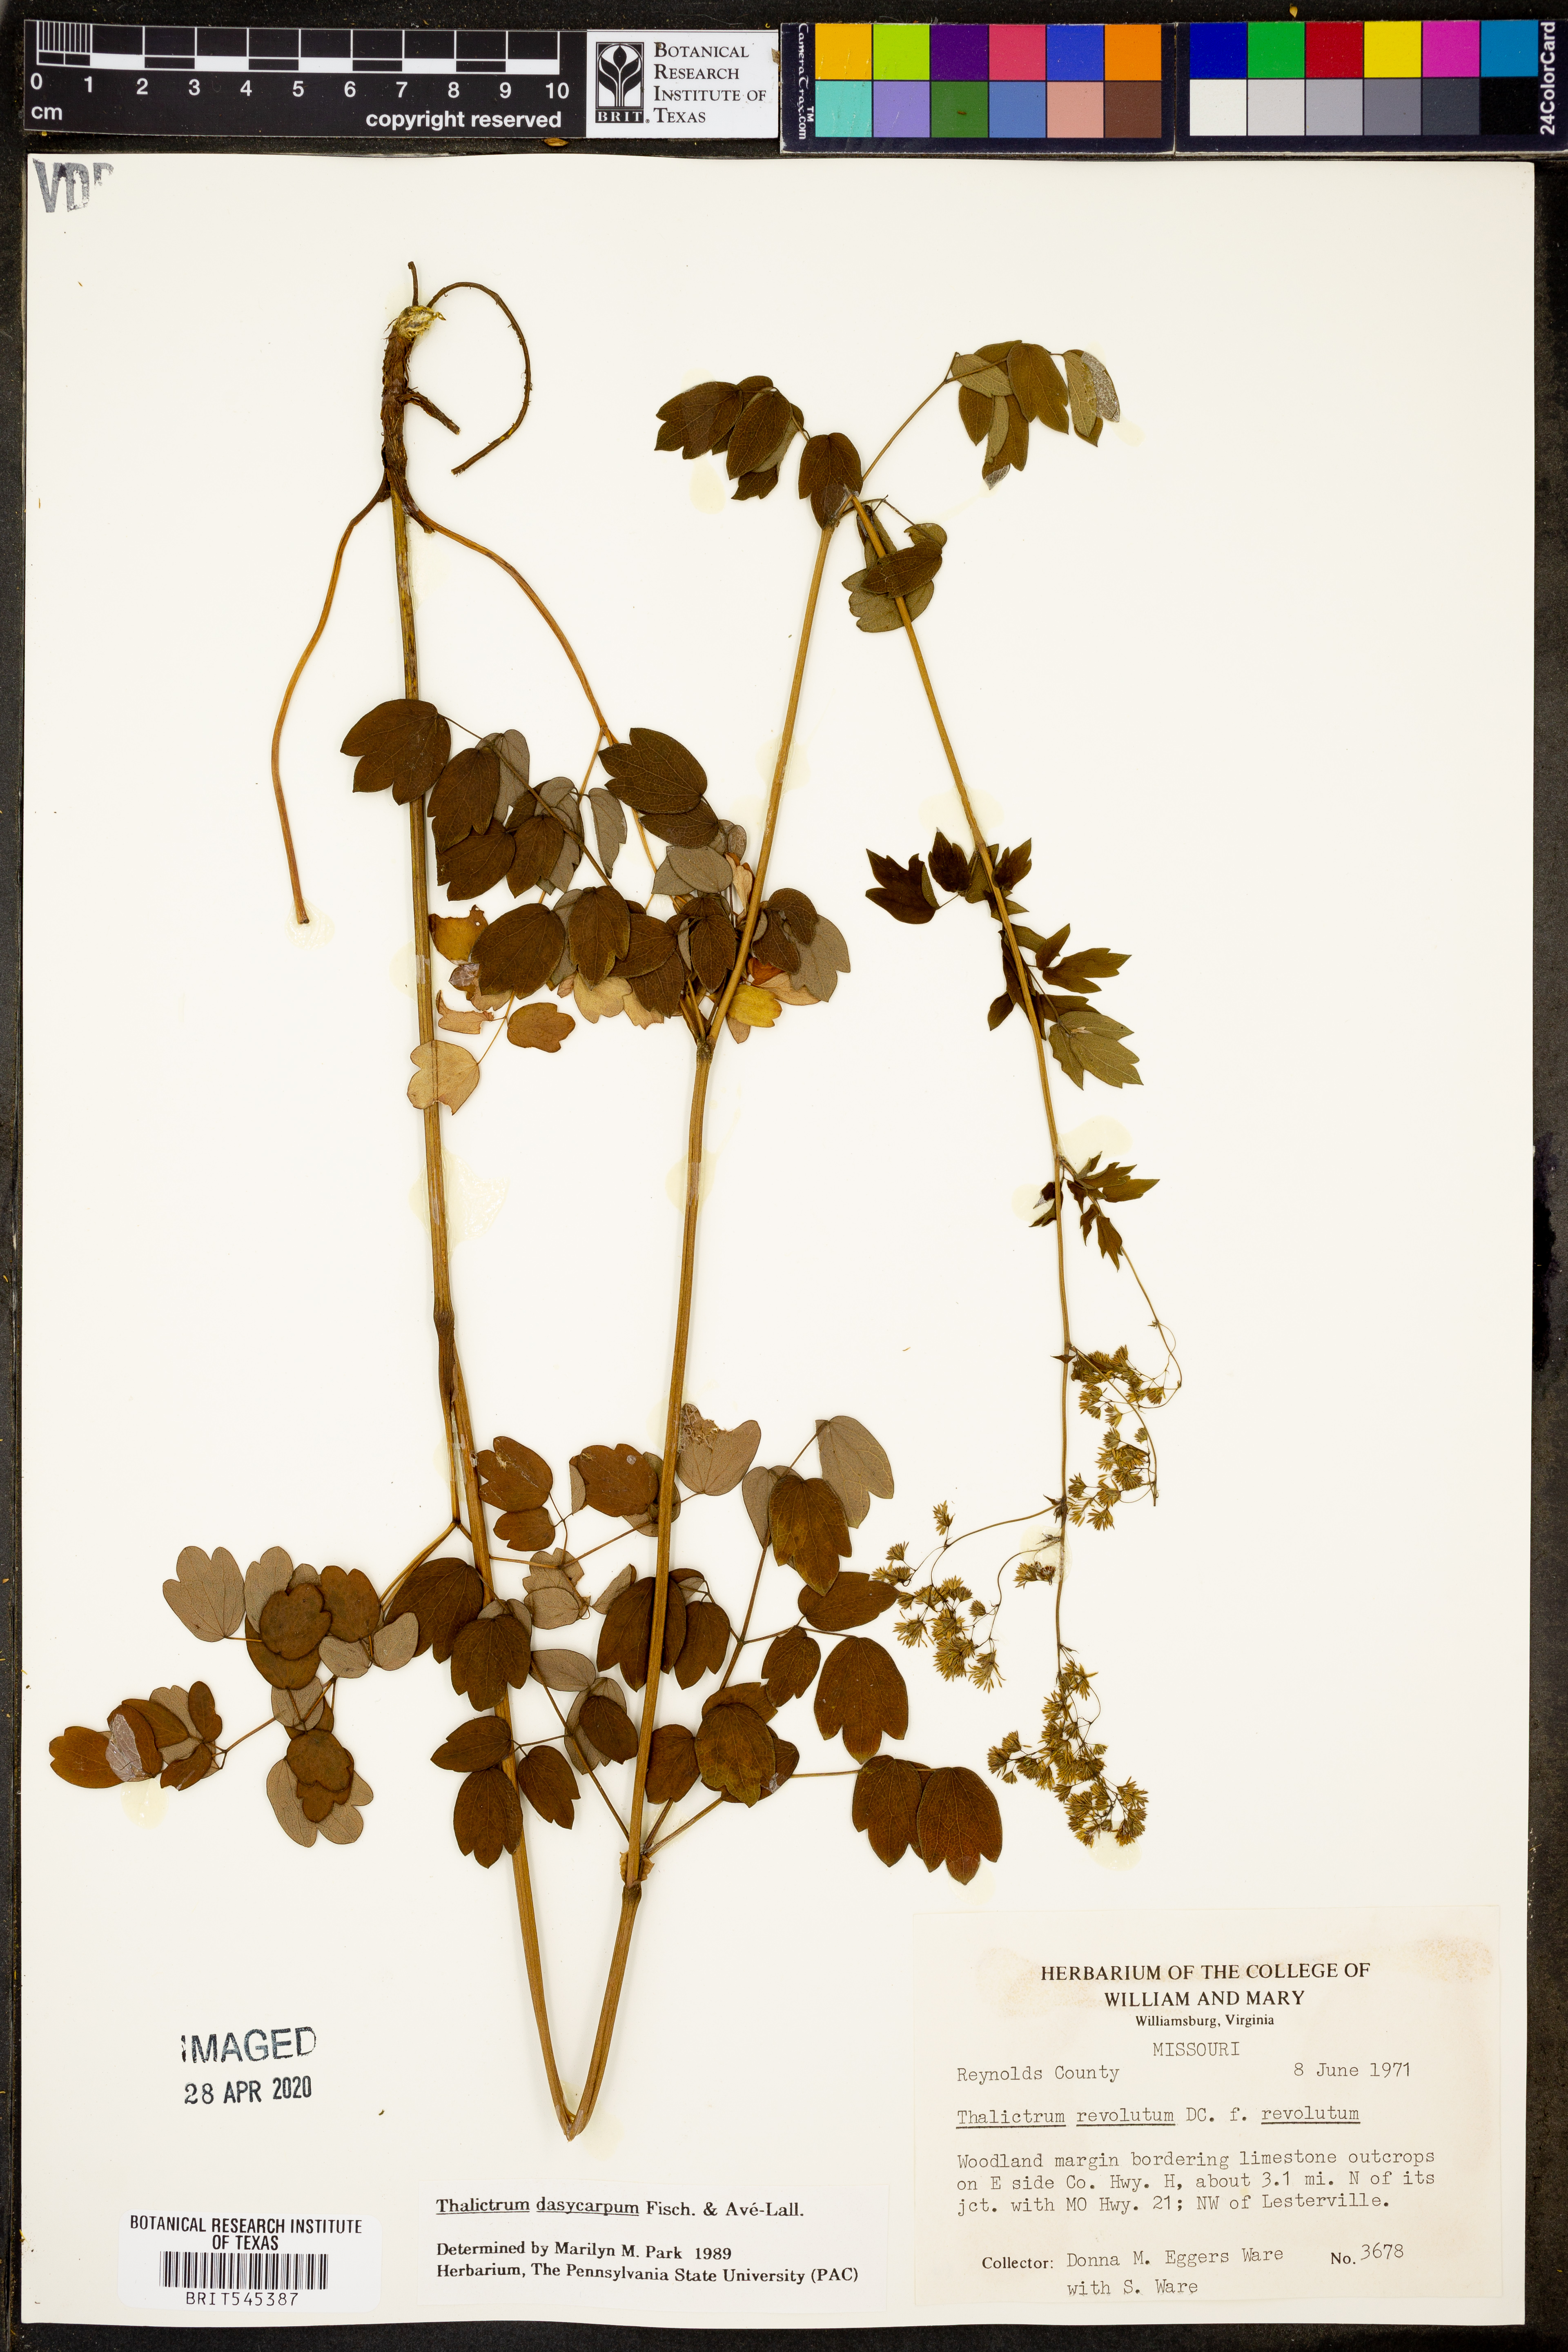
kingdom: Plantae
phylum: Tracheophyta
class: Magnoliopsida
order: Ranunculales
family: Ranunculaceae
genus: Thalictrum
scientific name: Thalictrum dasycarpum
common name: Purple meadow-rue
